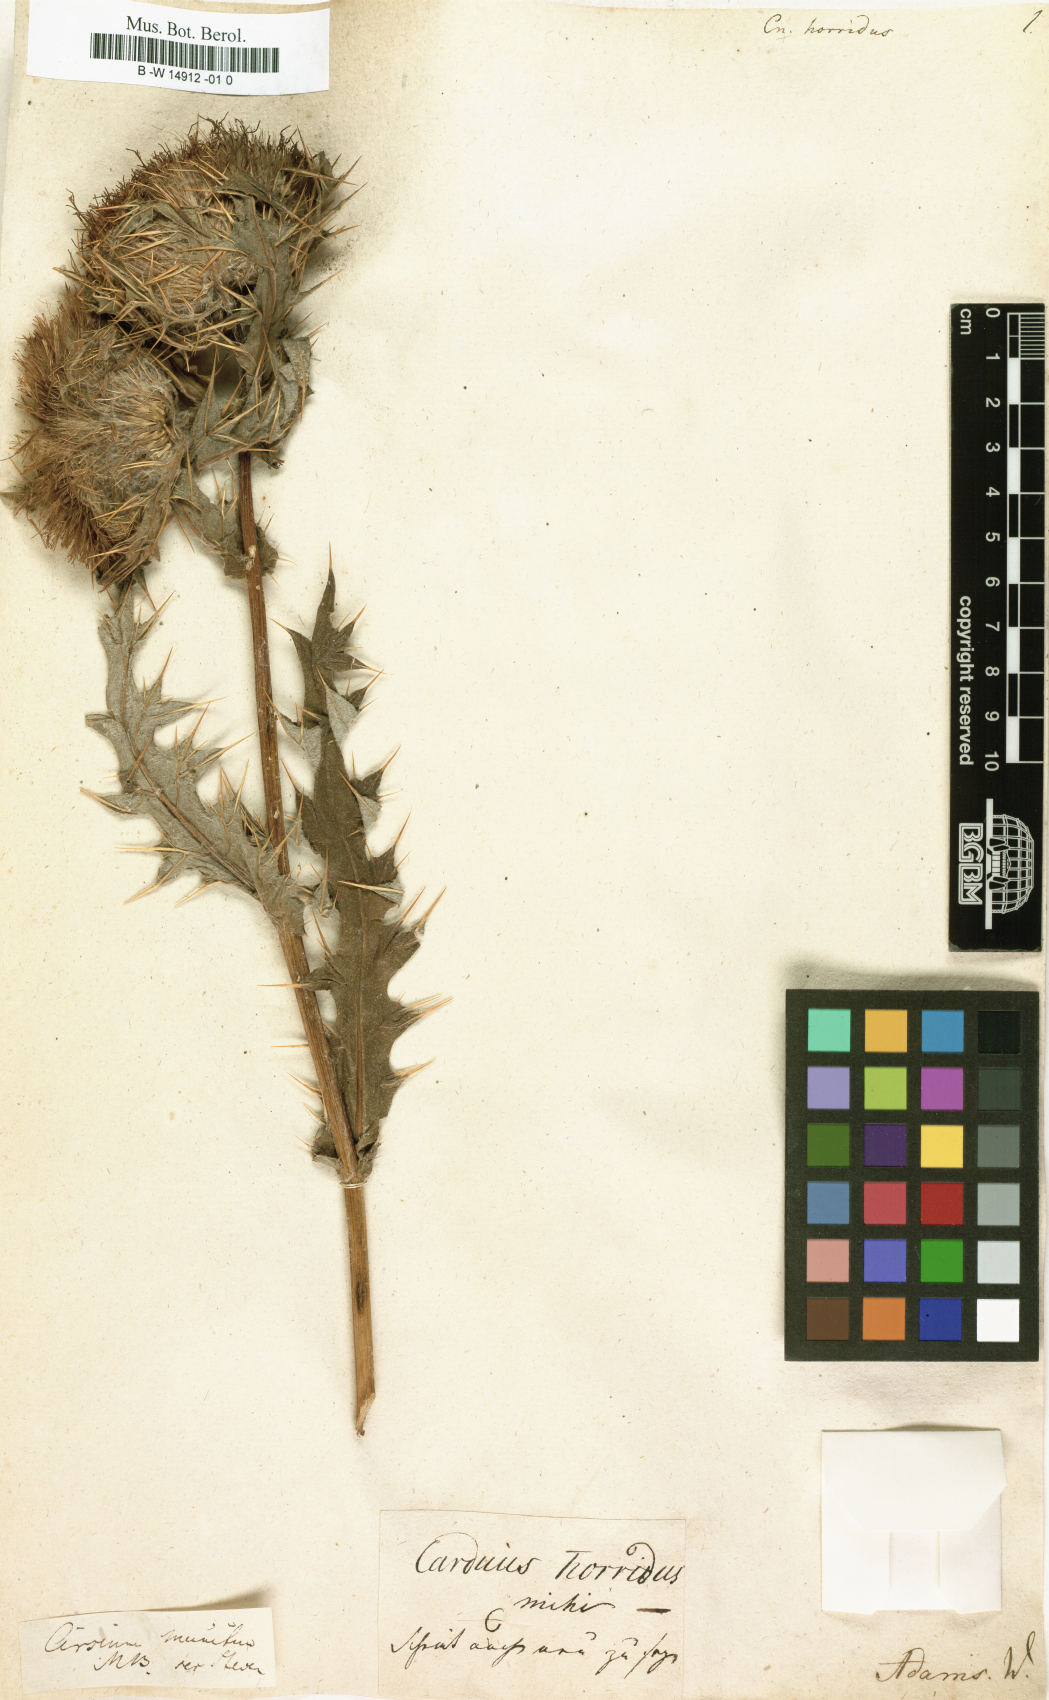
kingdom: Plantae
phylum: Tracheophyta
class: Magnoliopsida
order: Asterales
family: Asteraceae
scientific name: Asteraceae
